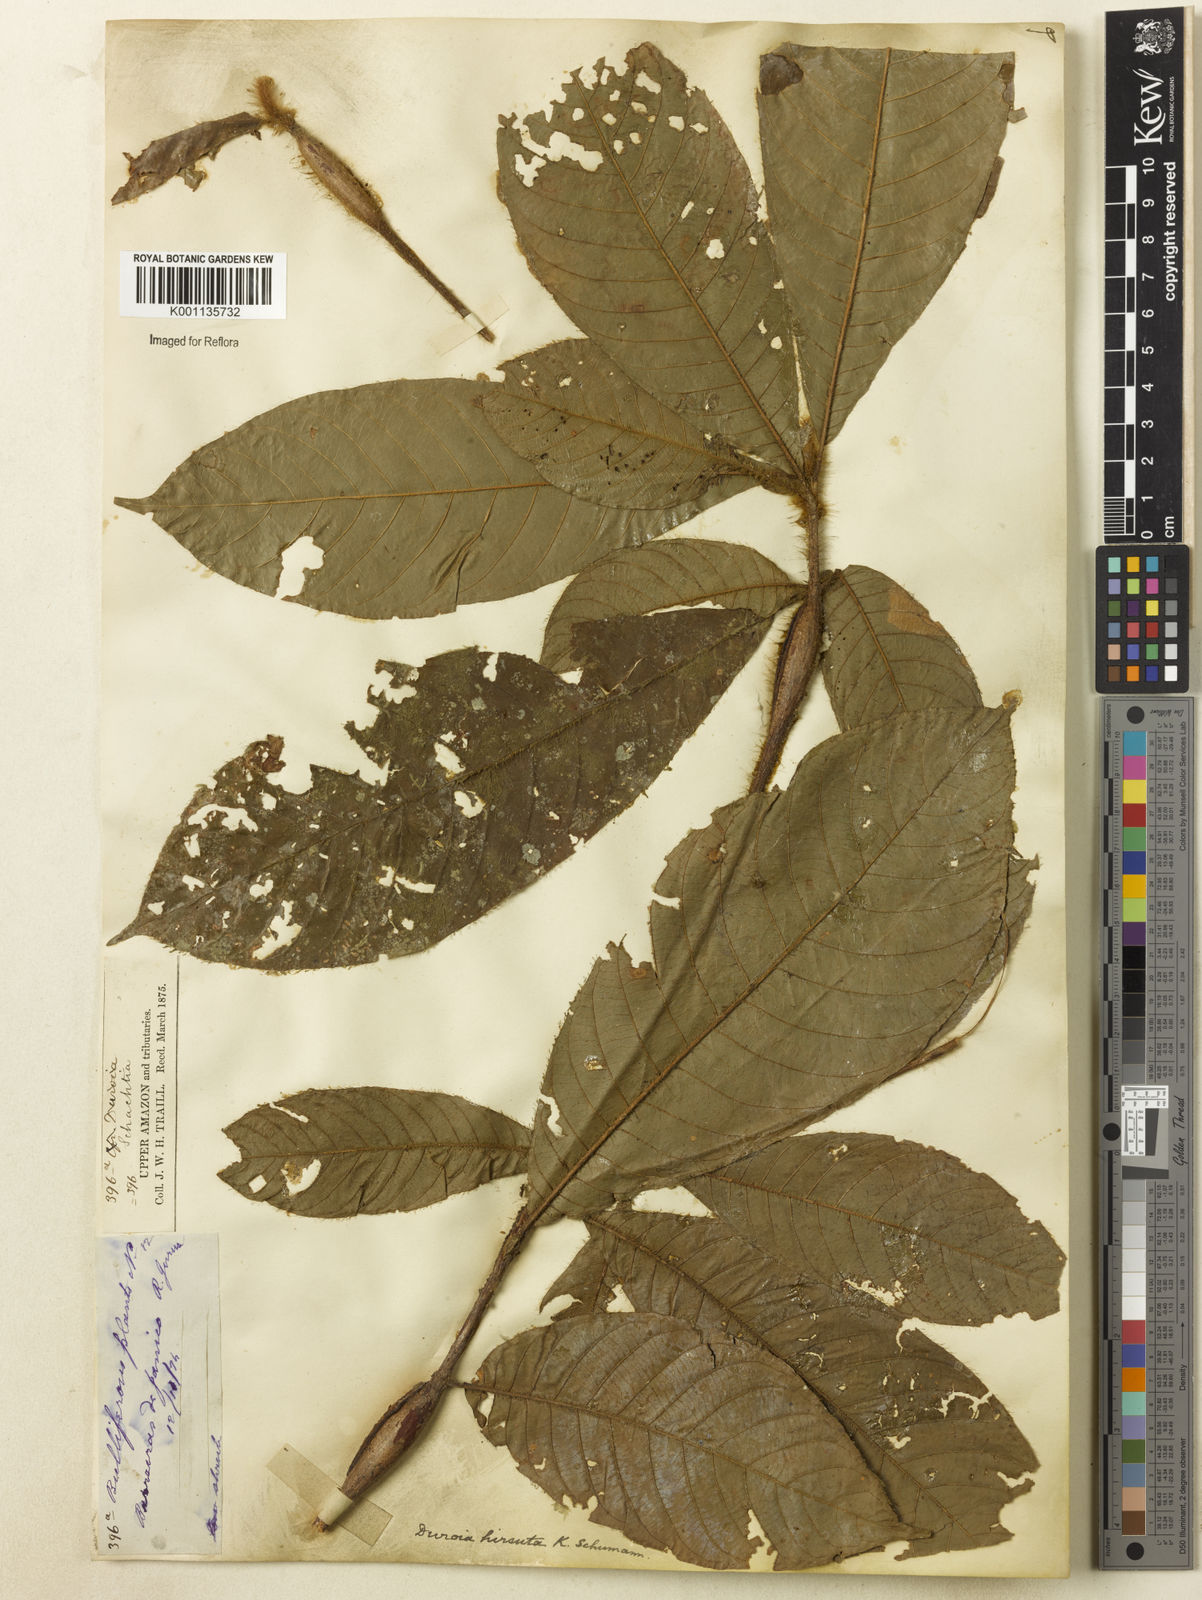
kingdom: Plantae
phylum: Tracheophyta
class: Magnoliopsida
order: Gentianales
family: Rubiaceae
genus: Duroia
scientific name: Duroia hirsuta
